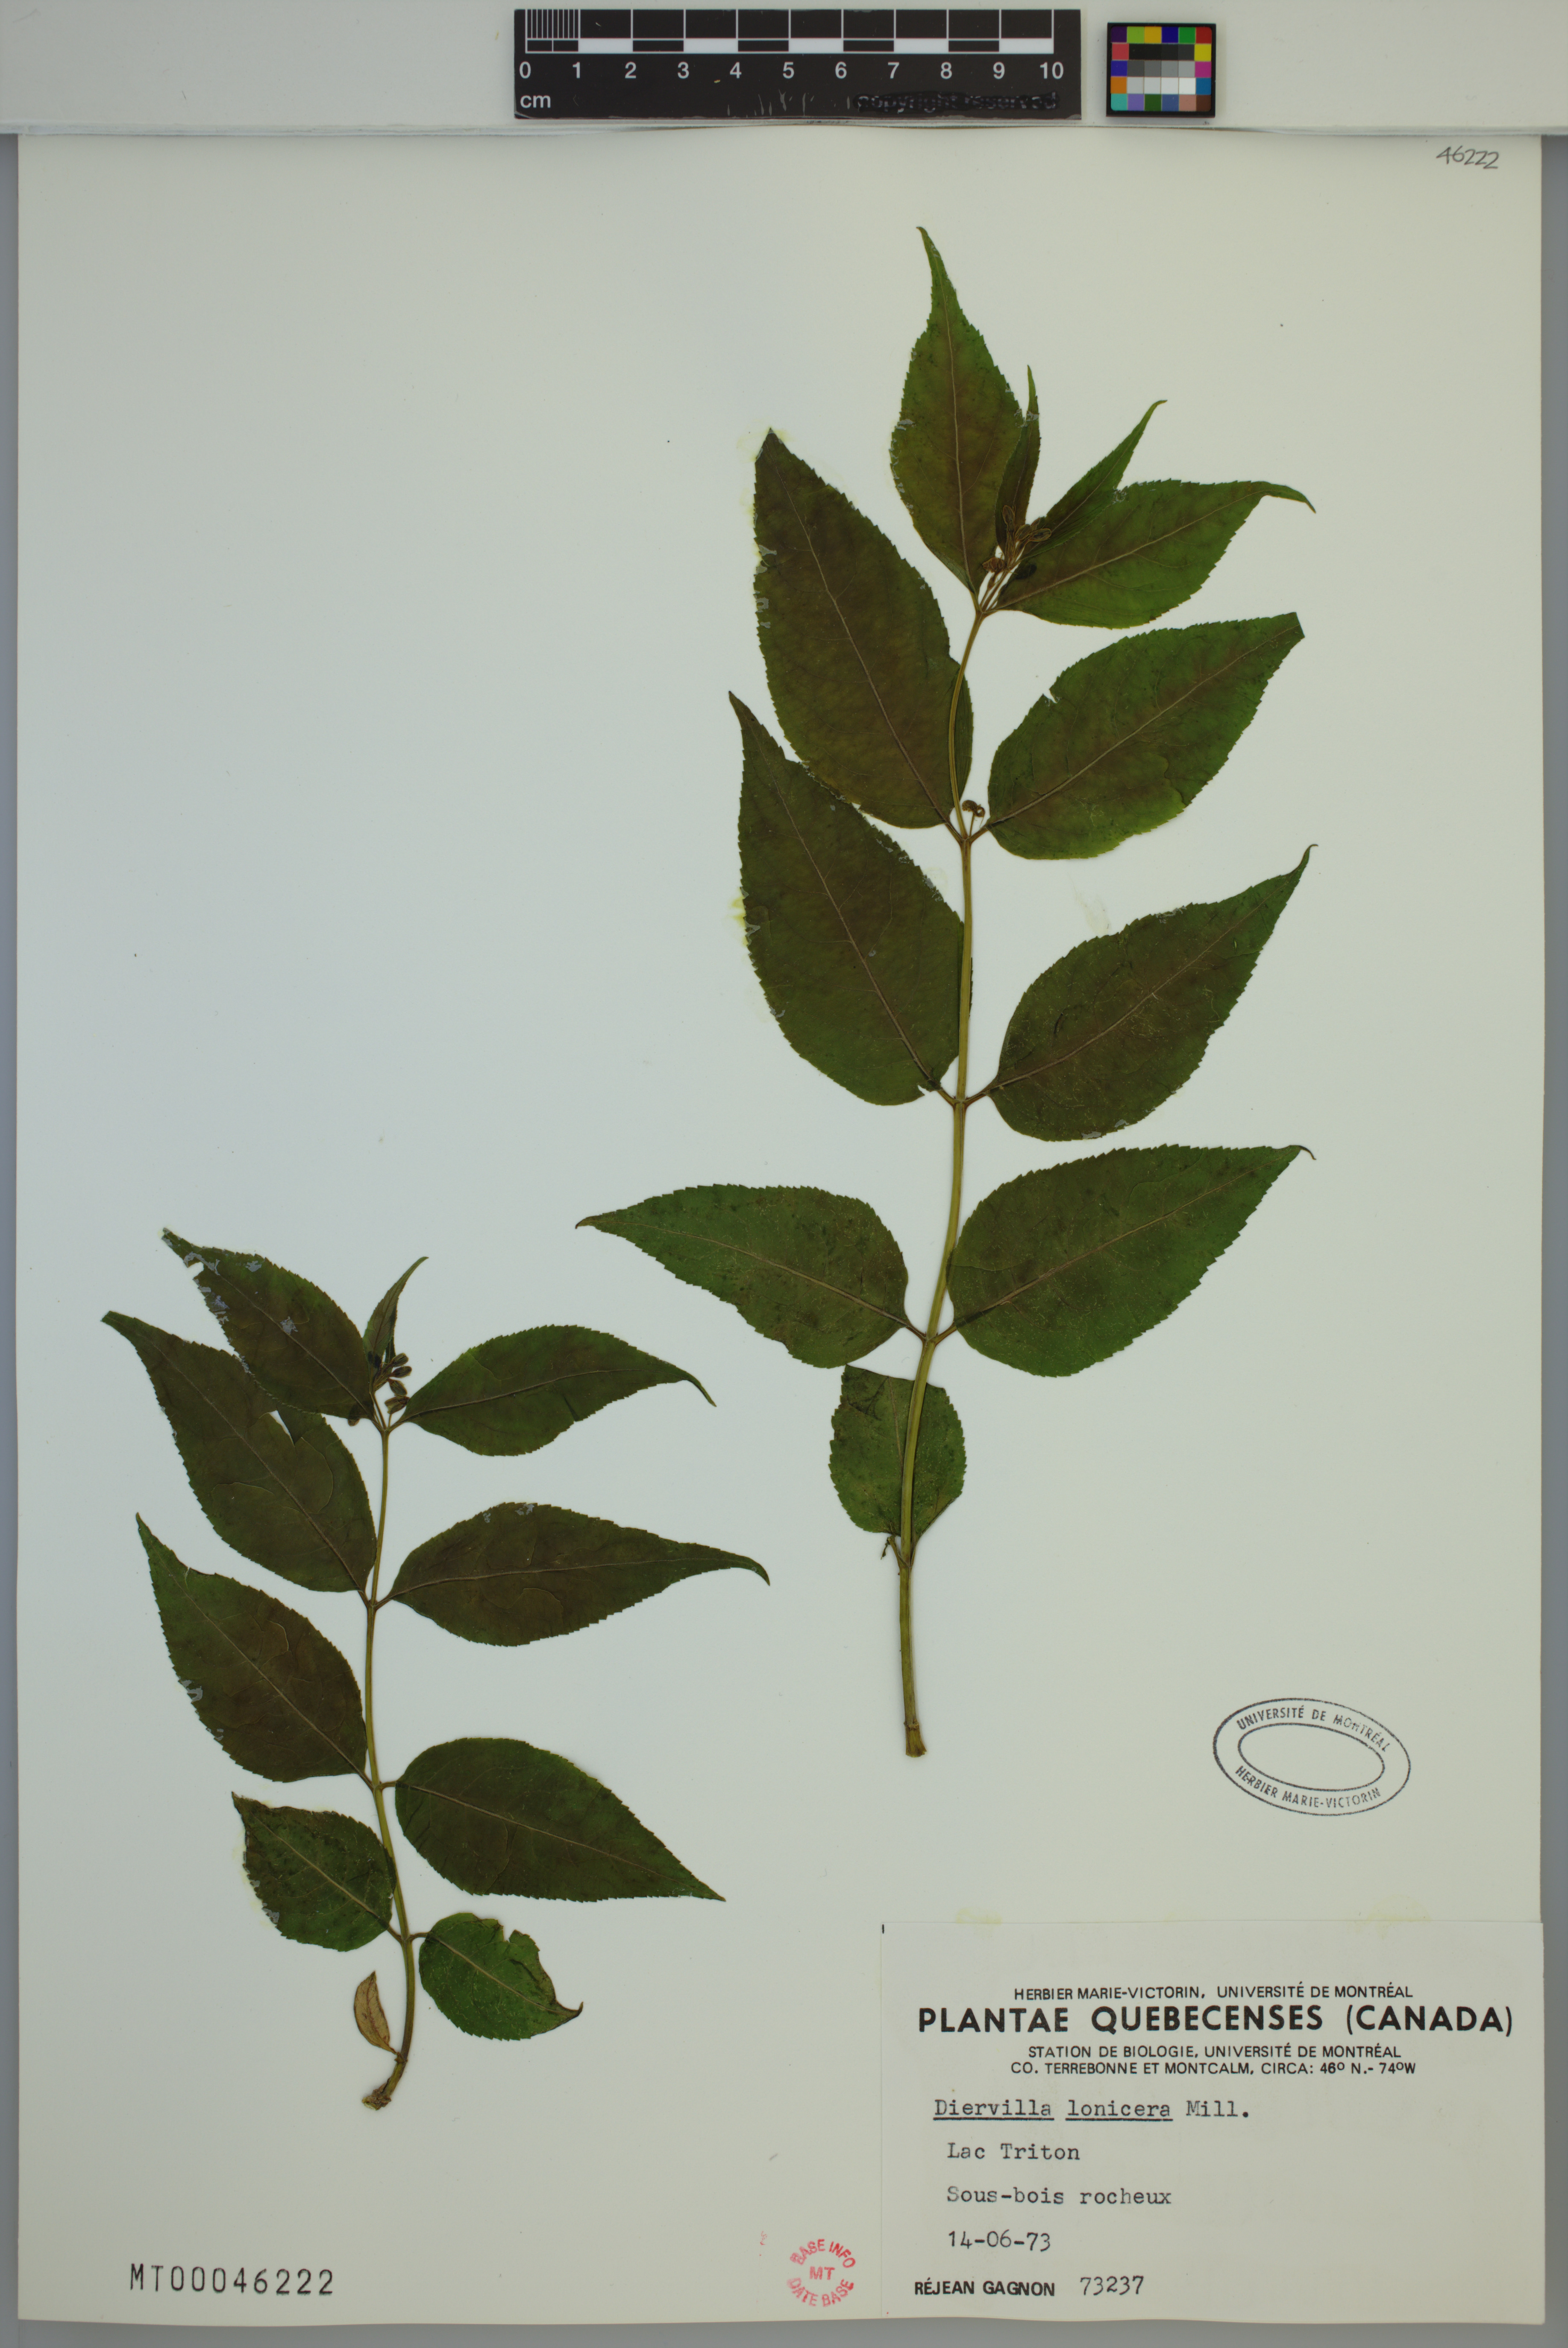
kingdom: Plantae
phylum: Tracheophyta
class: Magnoliopsida
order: Dipsacales
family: Caprifoliaceae
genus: Diervilla
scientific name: Diervilla lonicera
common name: Bush-honeysuckle
